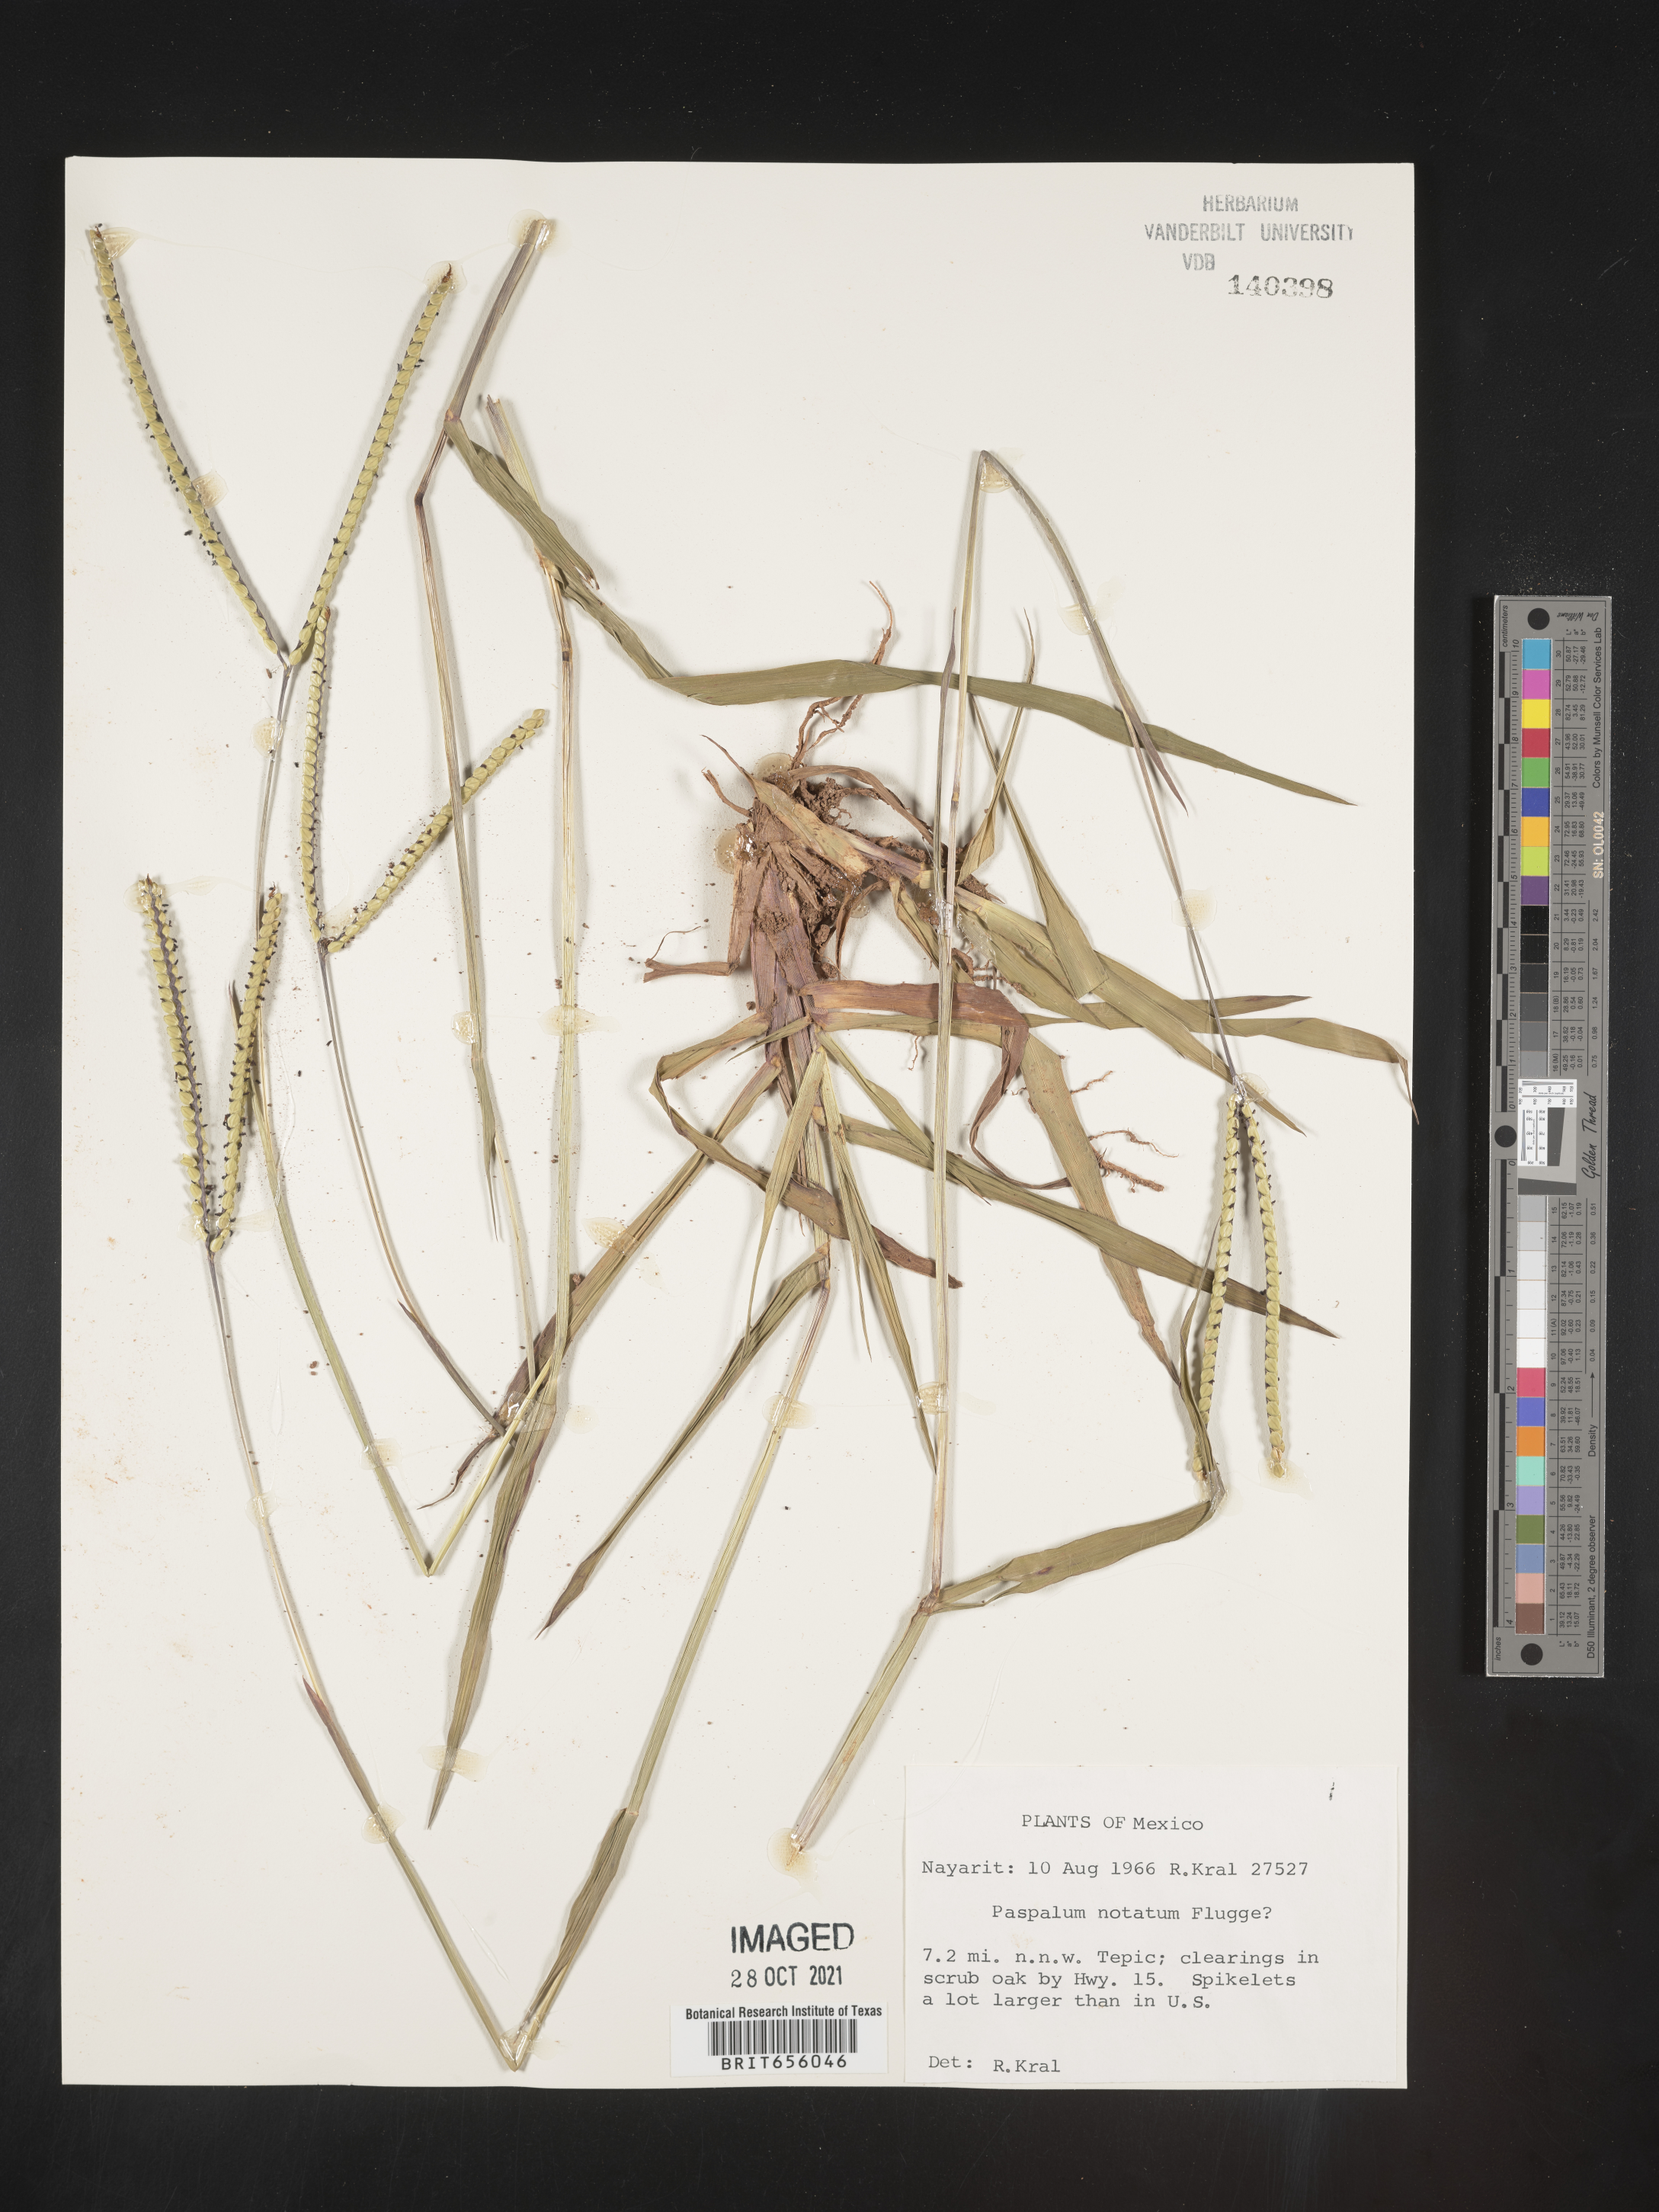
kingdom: Plantae
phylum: Tracheophyta
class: Liliopsida
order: Poales
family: Poaceae
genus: Paspalum
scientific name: Paspalum
